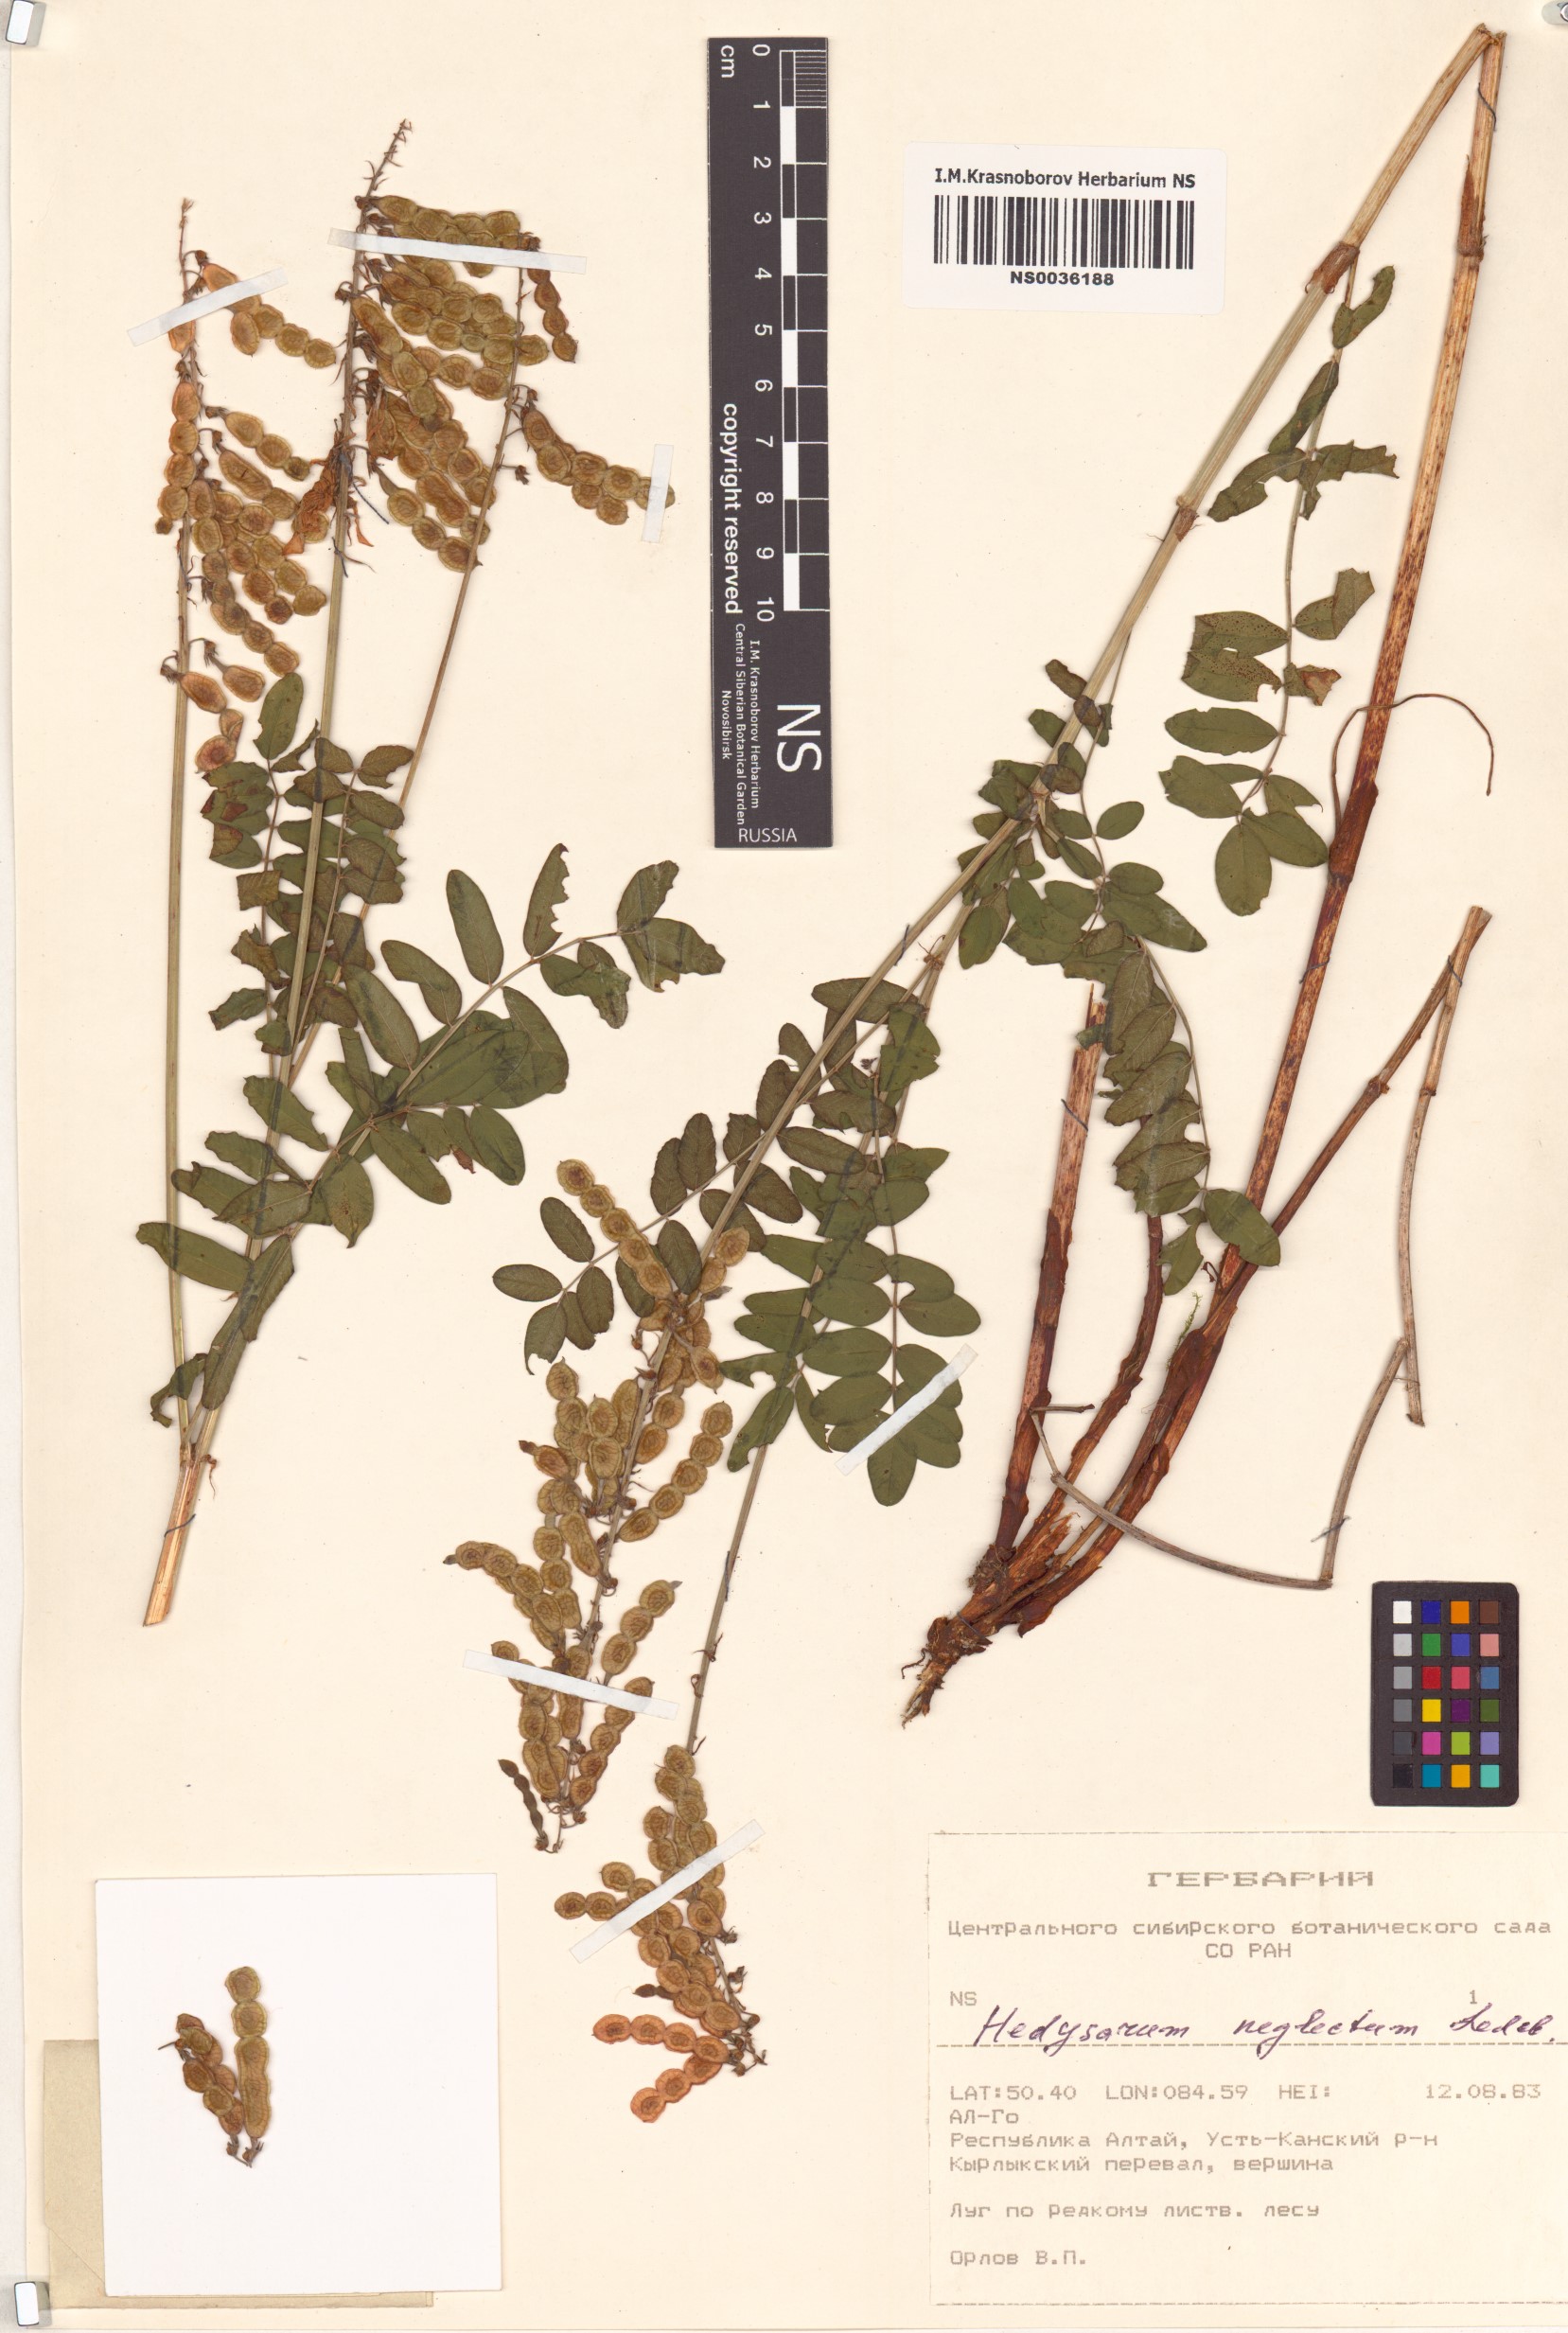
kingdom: Plantae
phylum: Tracheophyta
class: Magnoliopsida
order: Fabales
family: Fabaceae
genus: Hedysarum
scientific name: Hedysarum neglectum
